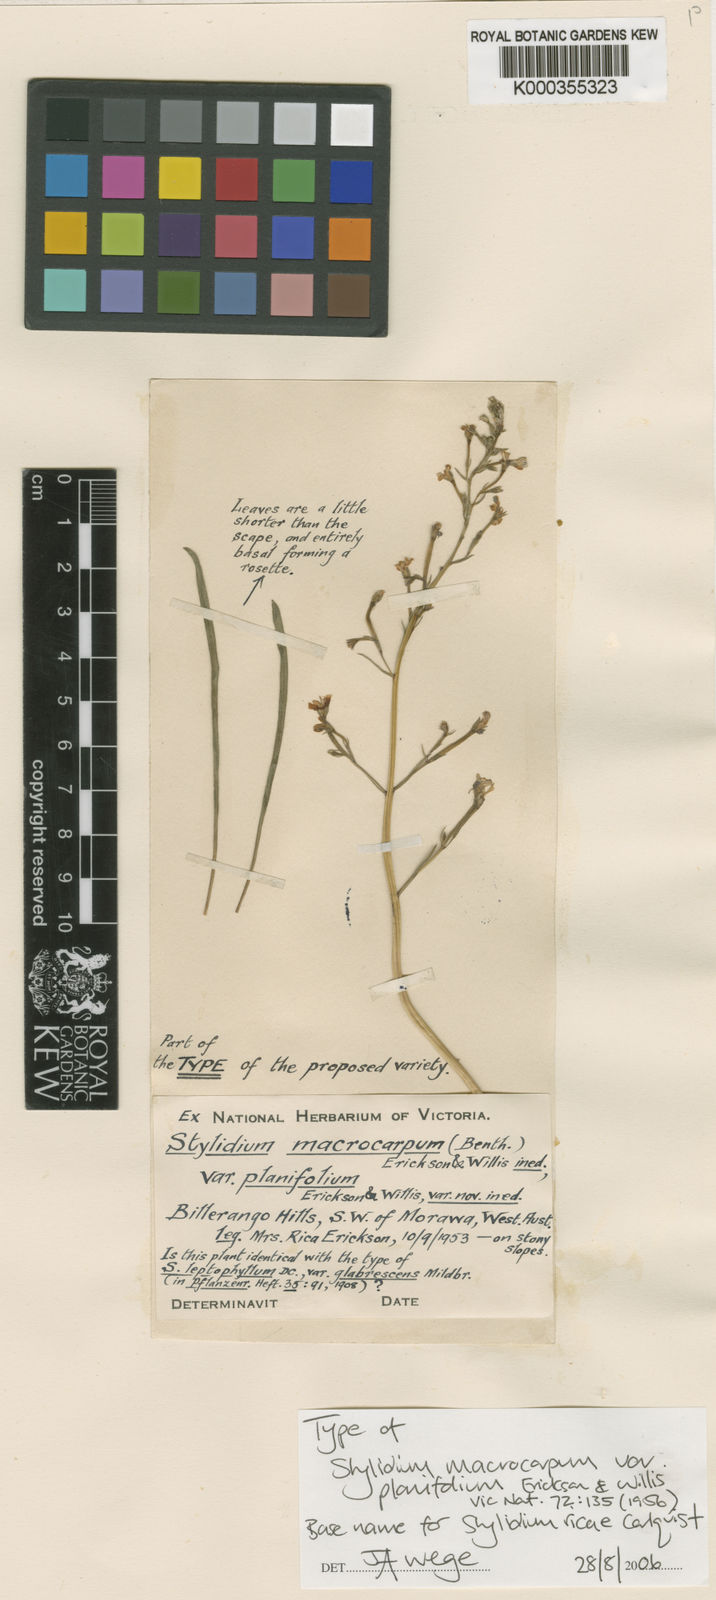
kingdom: Plantae
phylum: Tracheophyta
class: Magnoliopsida
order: Asterales
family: Stylidiaceae
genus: Stylidium
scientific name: Stylidium ricae
